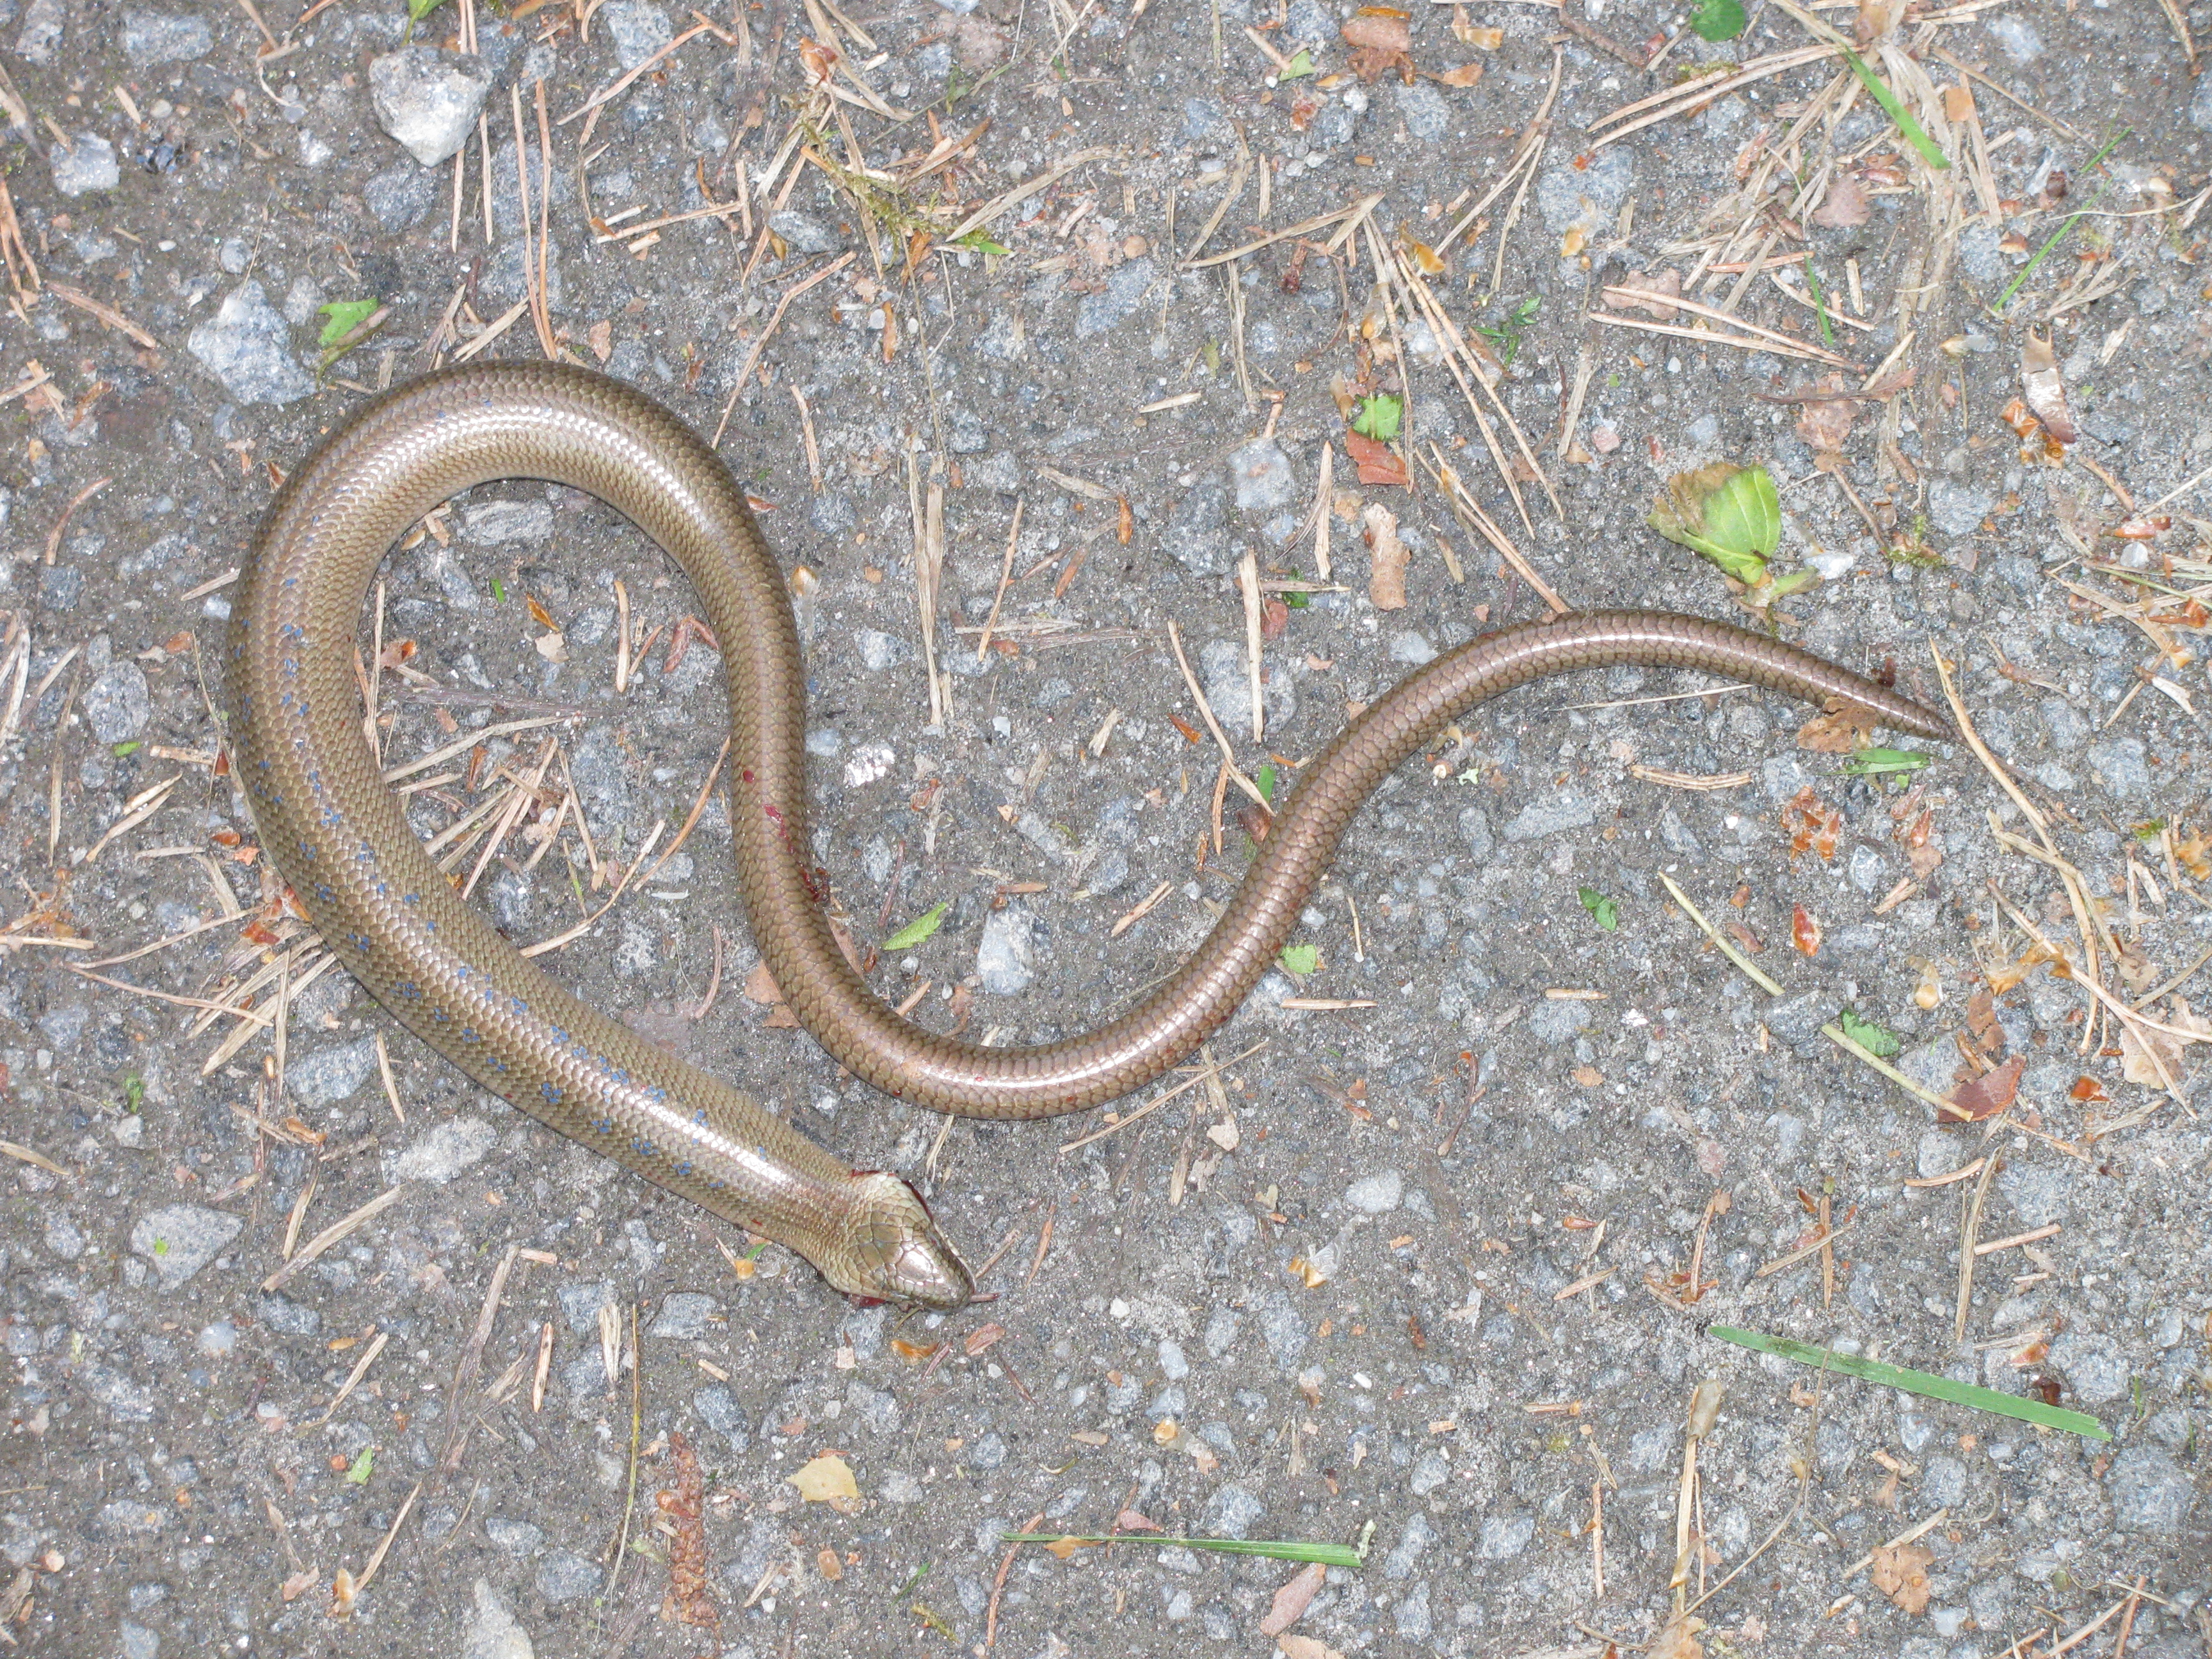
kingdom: Animalia
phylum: Chordata
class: Squamata
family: Anguidae
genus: Anguis
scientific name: Anguis colchica
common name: Slow worm
